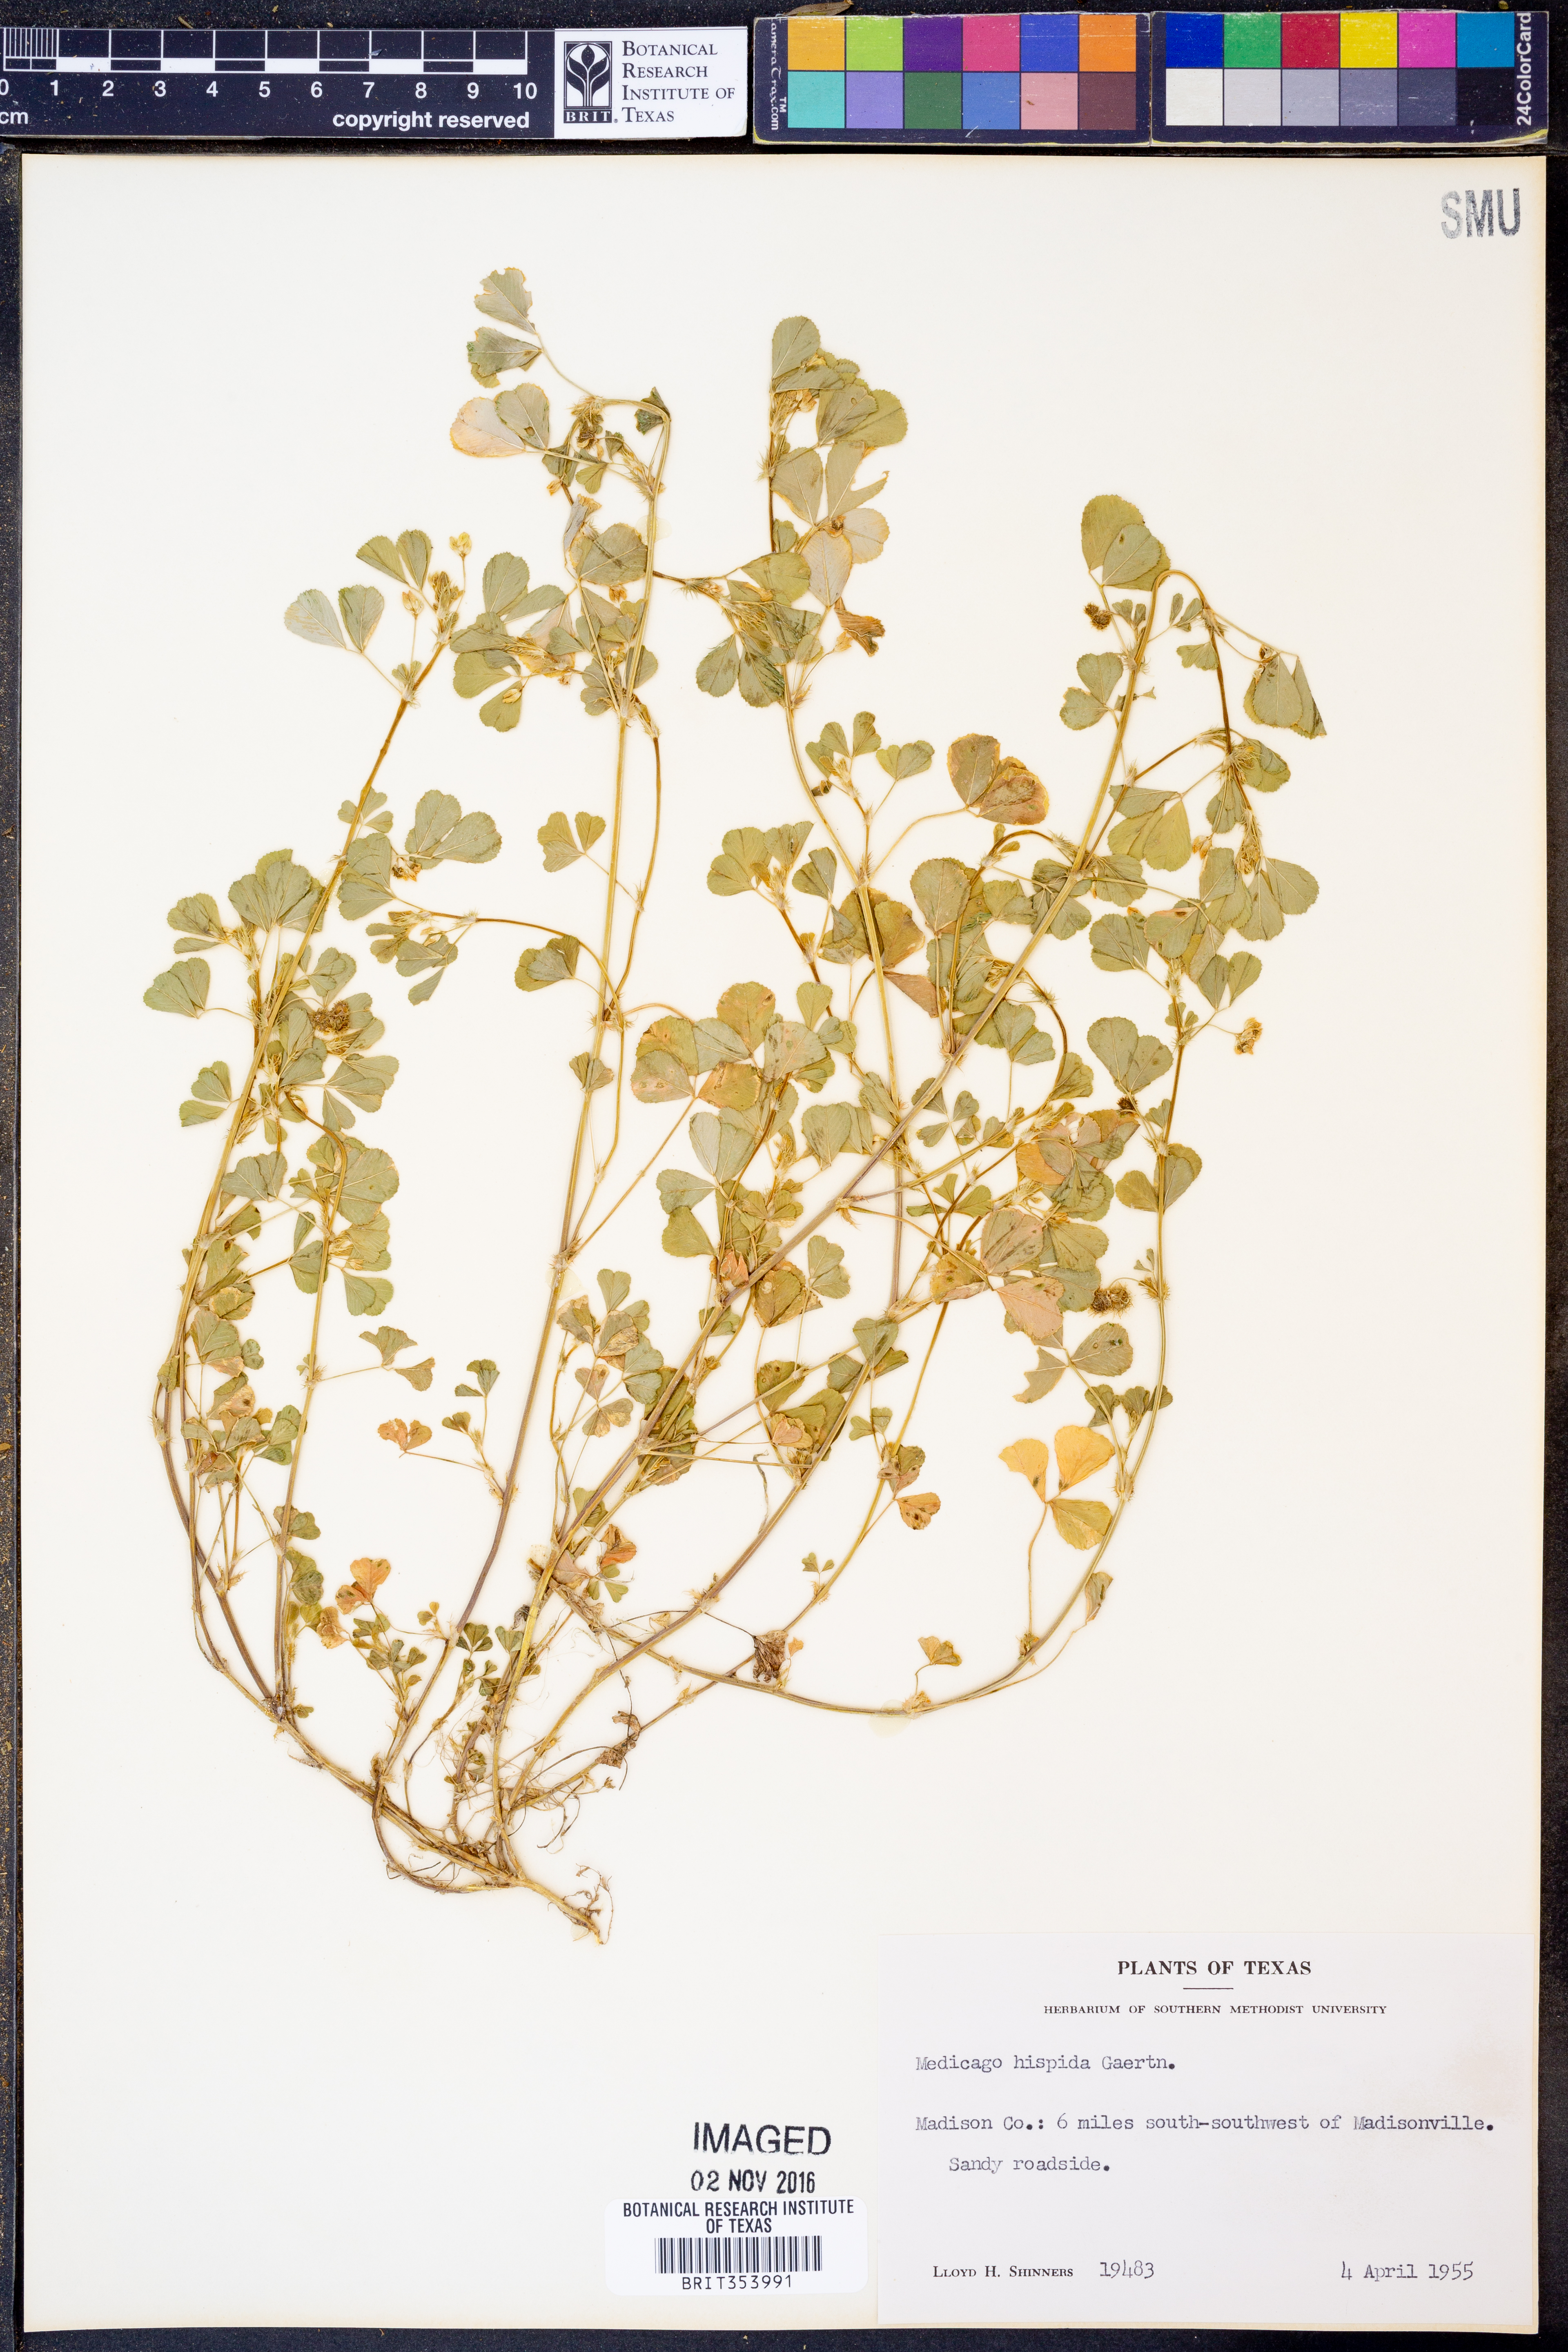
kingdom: Plantae
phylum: Tracheophyta
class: Magnoliopsida
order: Fabales
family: Fabaceae
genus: Medicago
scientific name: Medicago polymorpha
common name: Burclover
